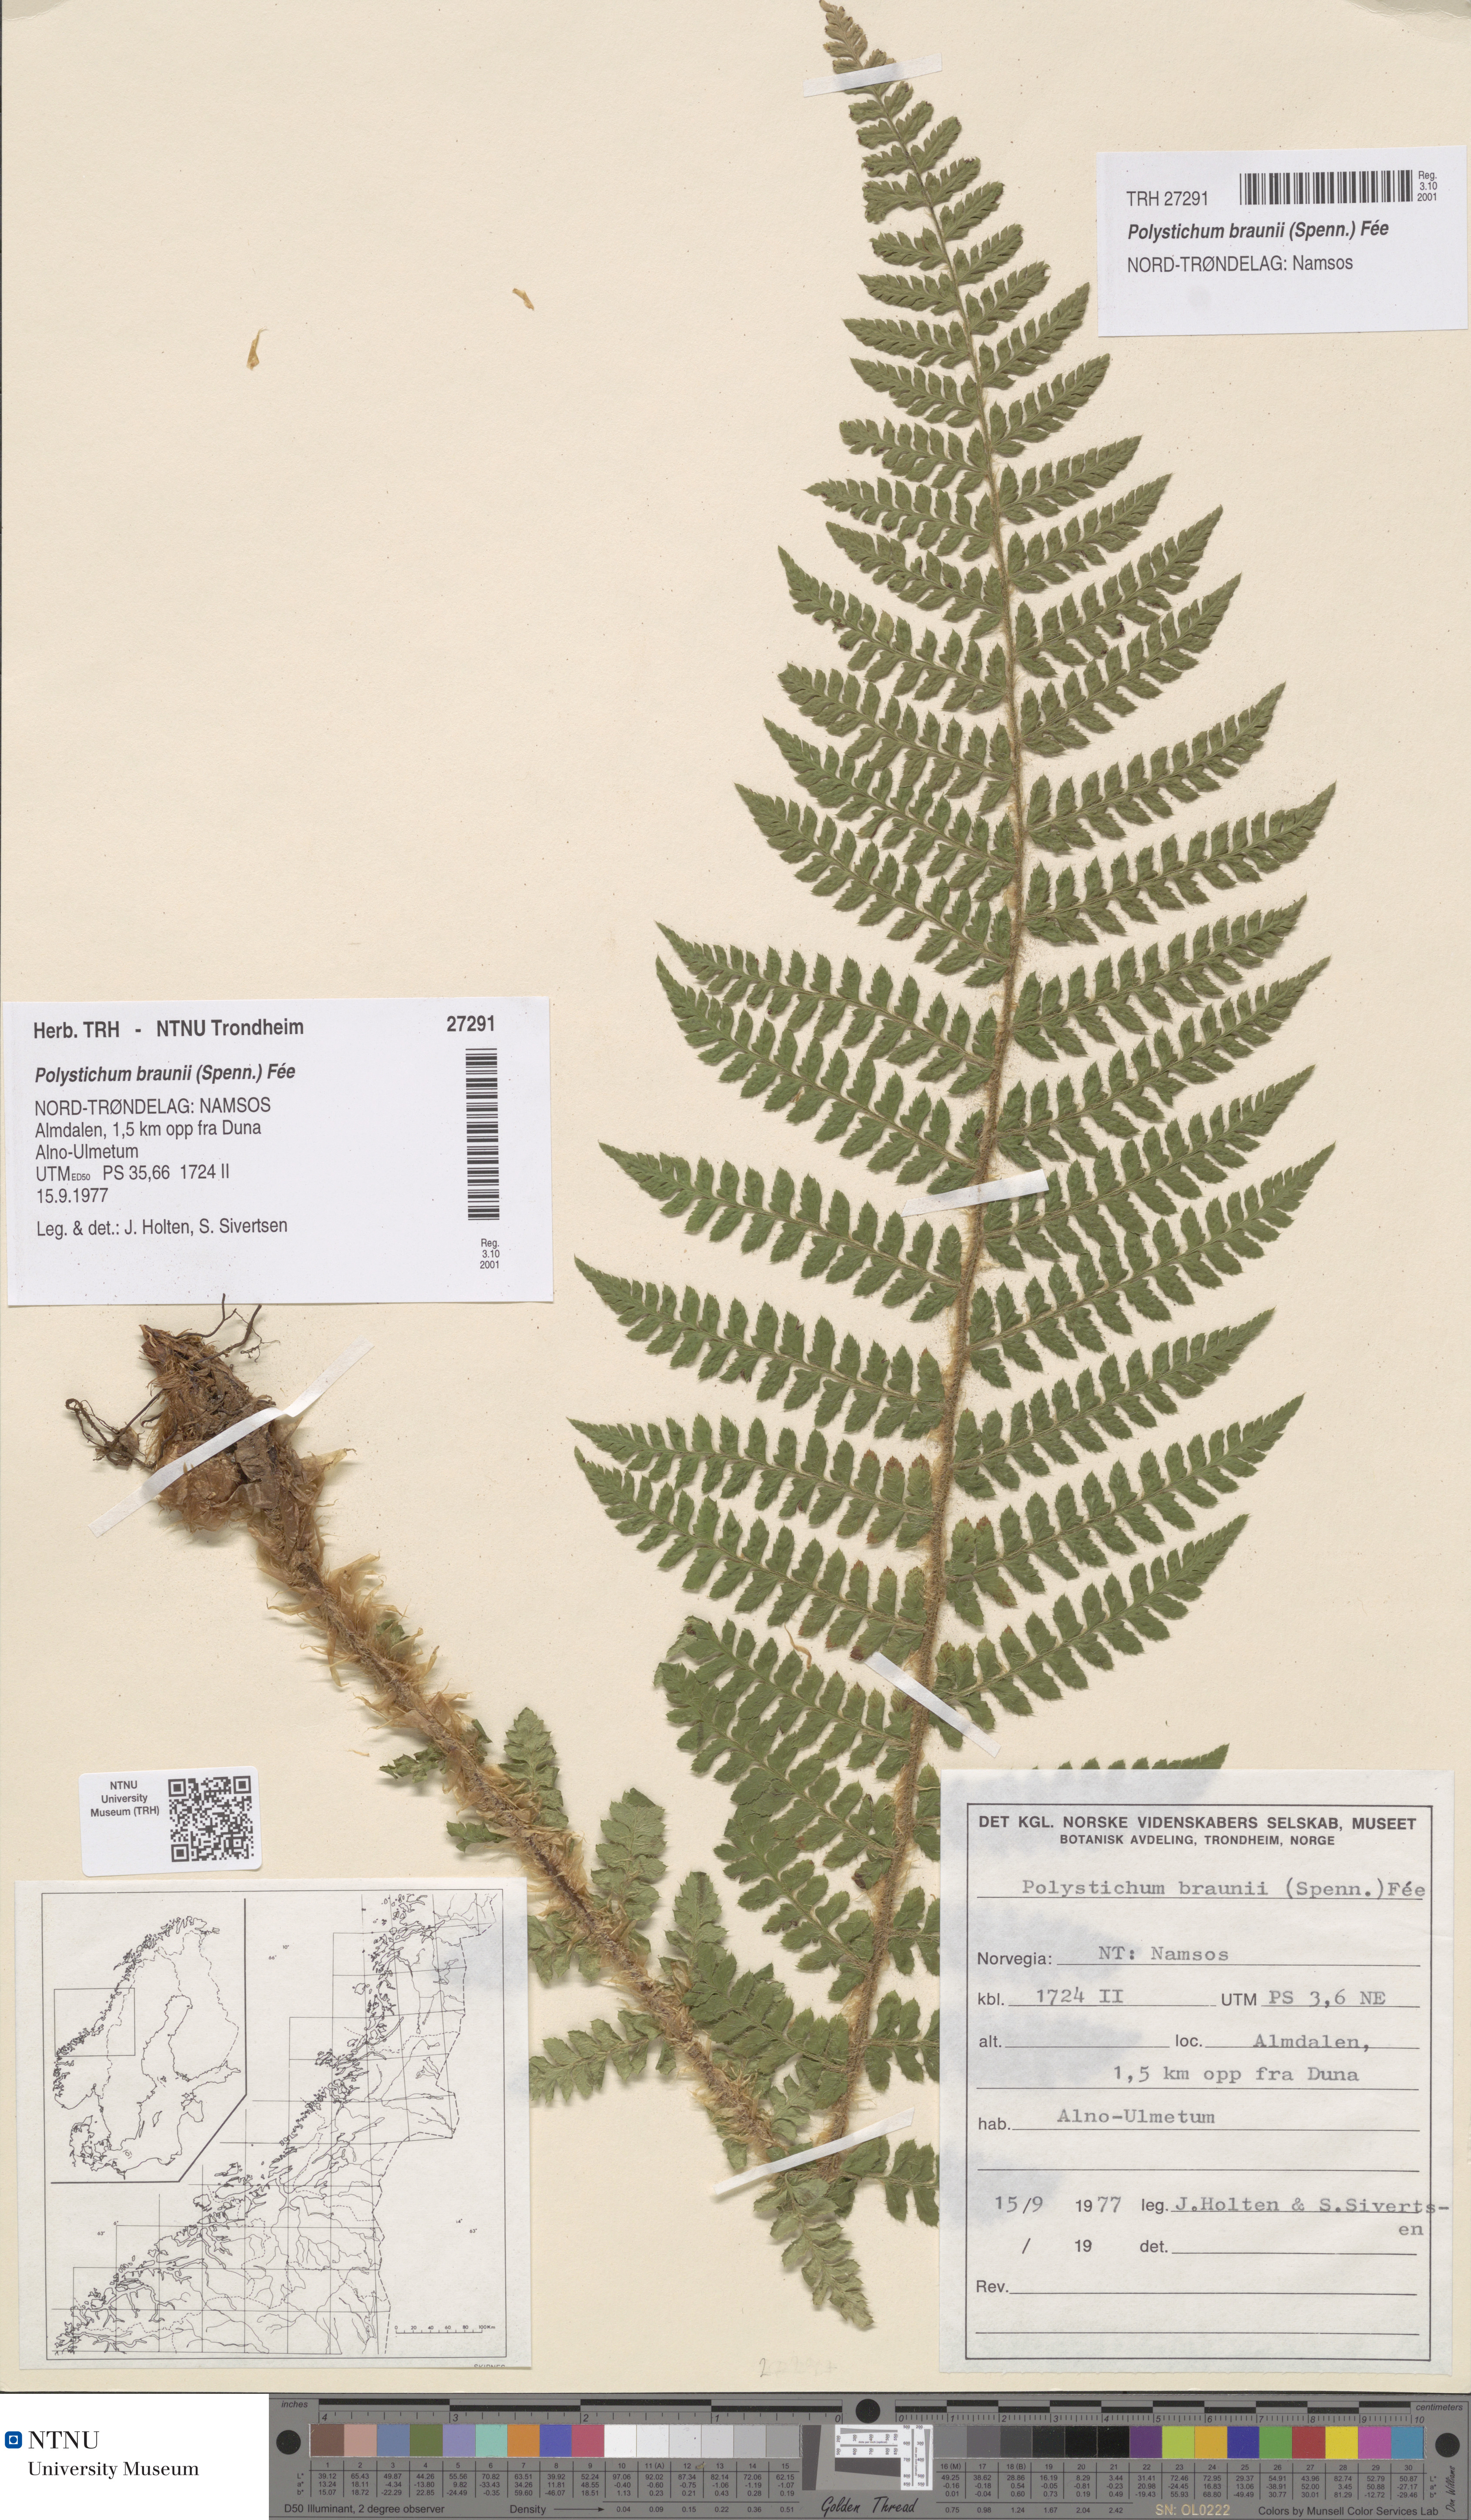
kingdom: Plantae
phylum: Tracheophyta
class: Polypodiopsida
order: Polypodiales
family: Dryopteridaceae
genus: Polystichum
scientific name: Polystichum braunii
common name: Braun's holly fern
